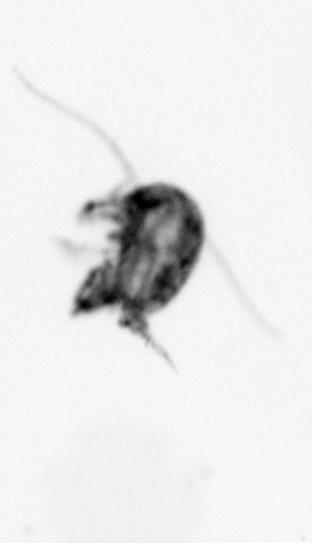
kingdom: Animalia
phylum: Arthropoda
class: Copepoda
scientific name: Copepoda
